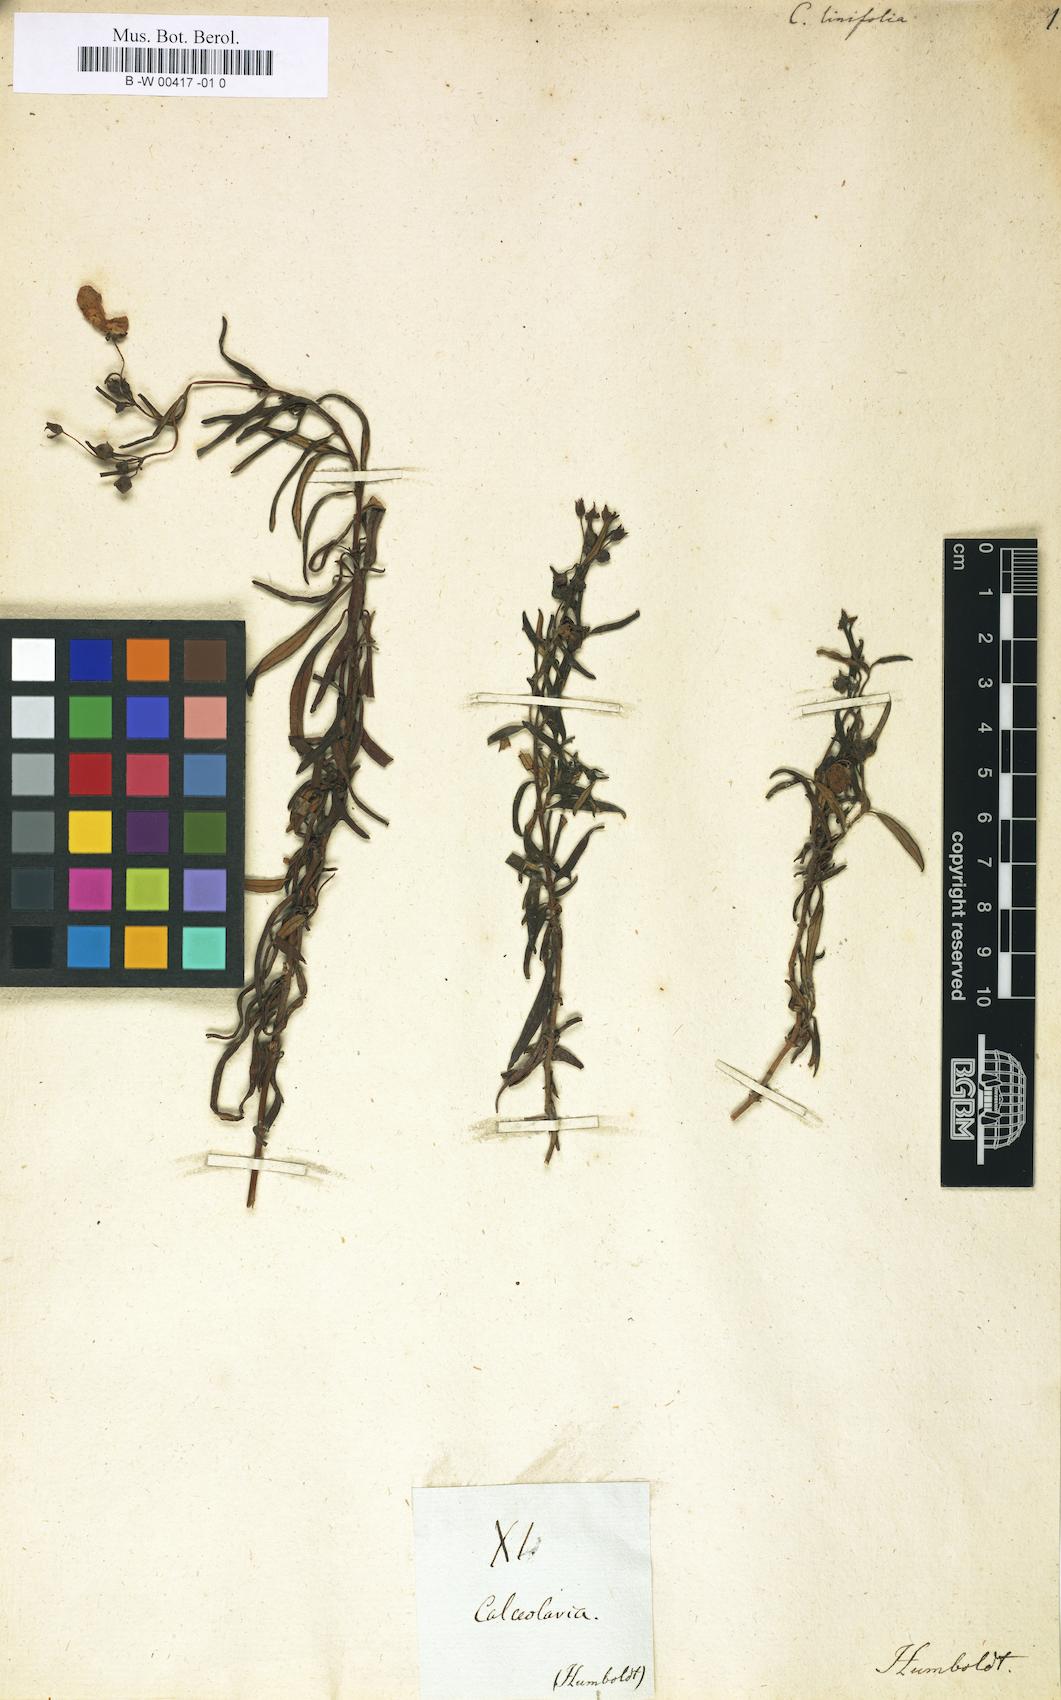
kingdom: Plantae
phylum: Tracheophyta
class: Magnoliopsida
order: Lamiales
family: Calceolariaceae
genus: Calceolaria
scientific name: Calceolaria hyssopifolia
